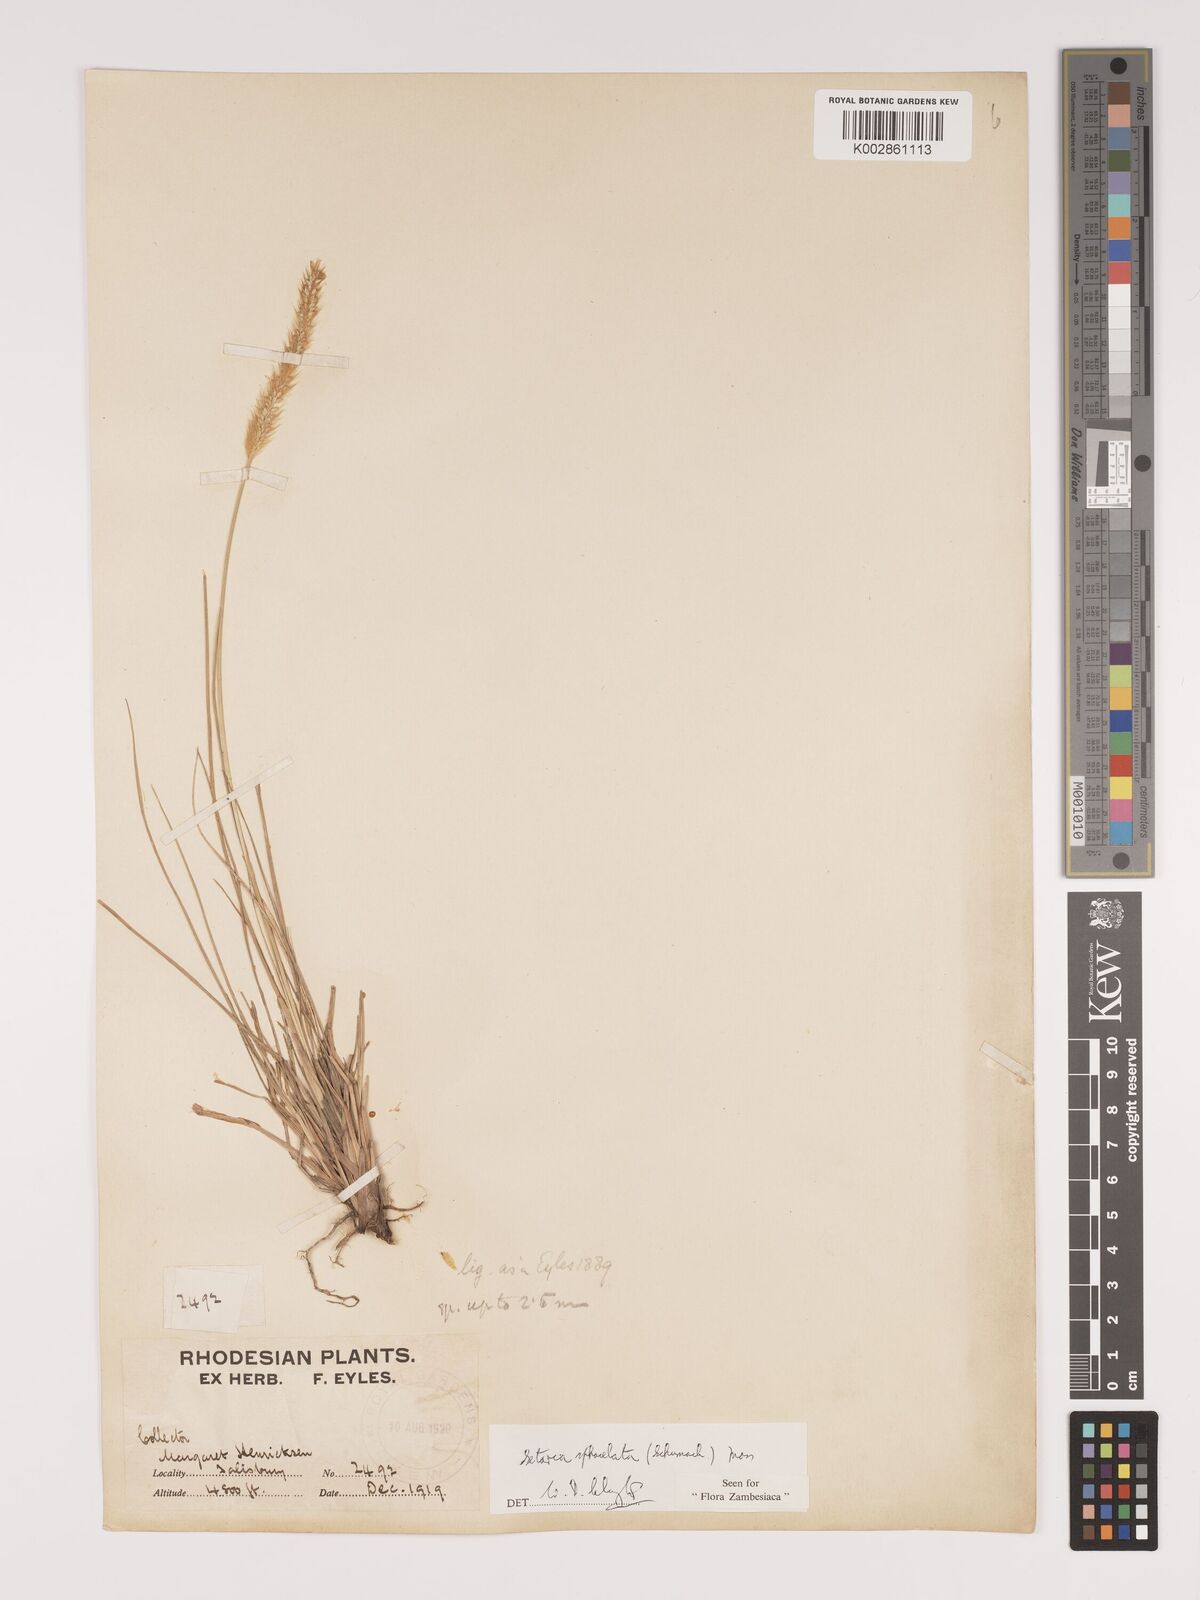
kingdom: Plantae
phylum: Tracheophyta
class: Liliopsida
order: Poales
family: Poaceae
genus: Setaria
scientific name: Setaria sphacelata
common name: African bristlegrass
